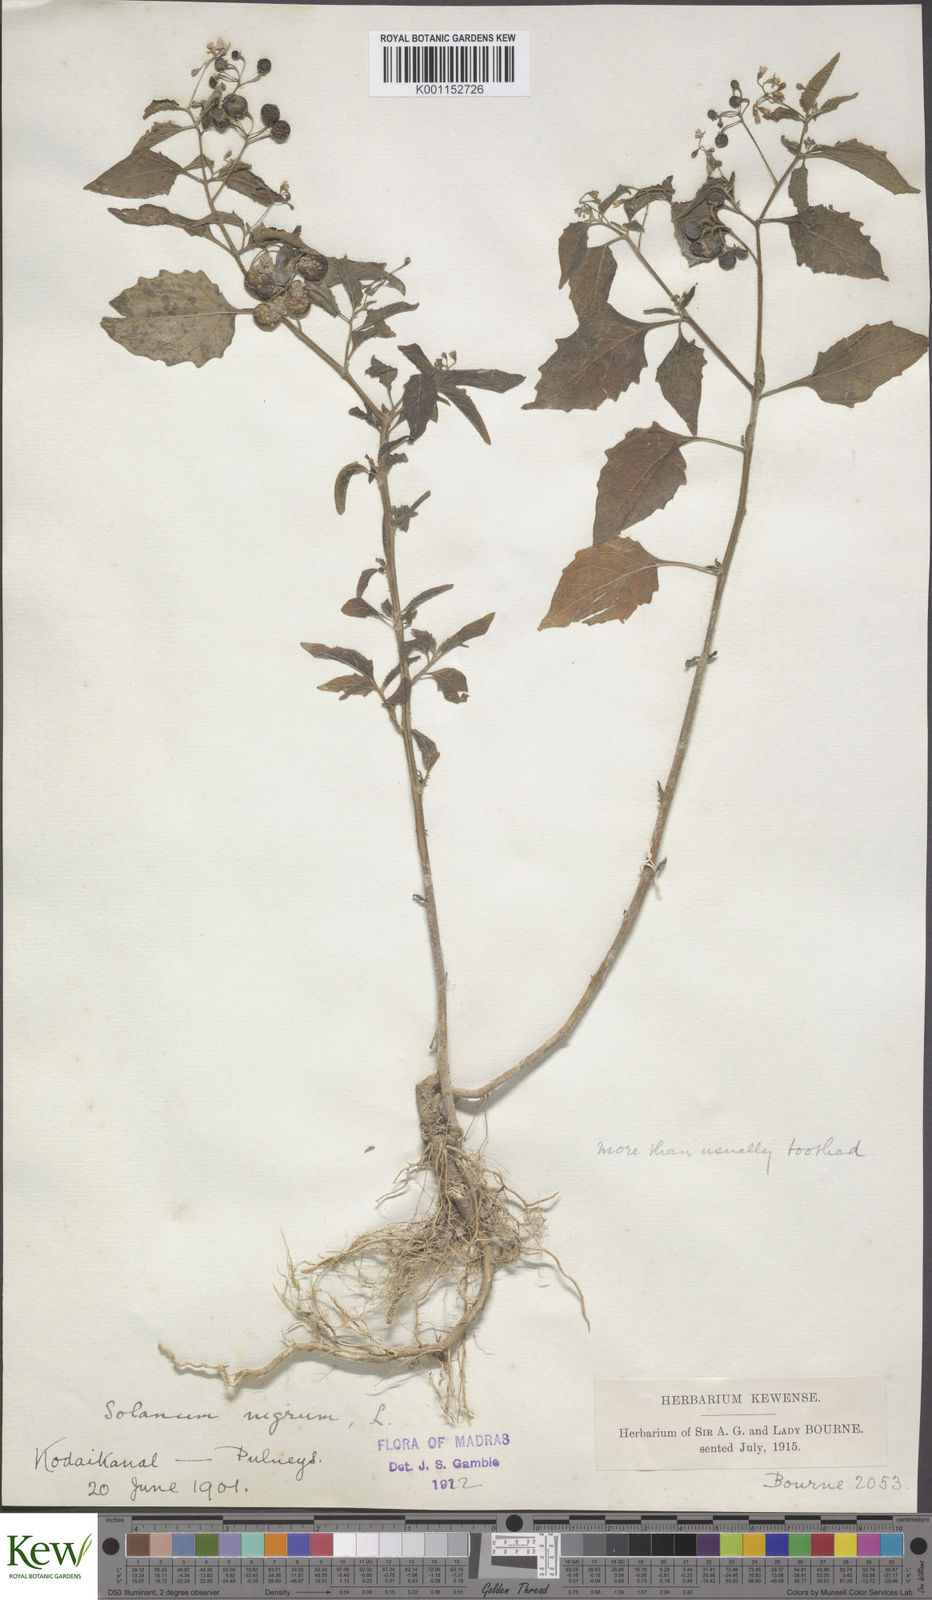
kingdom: Plantae
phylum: Tracheophyta
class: Magnoliopsida
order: Solanales
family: Solanaceae
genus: Solanum
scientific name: Solanum nigrum
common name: Black nightshade
